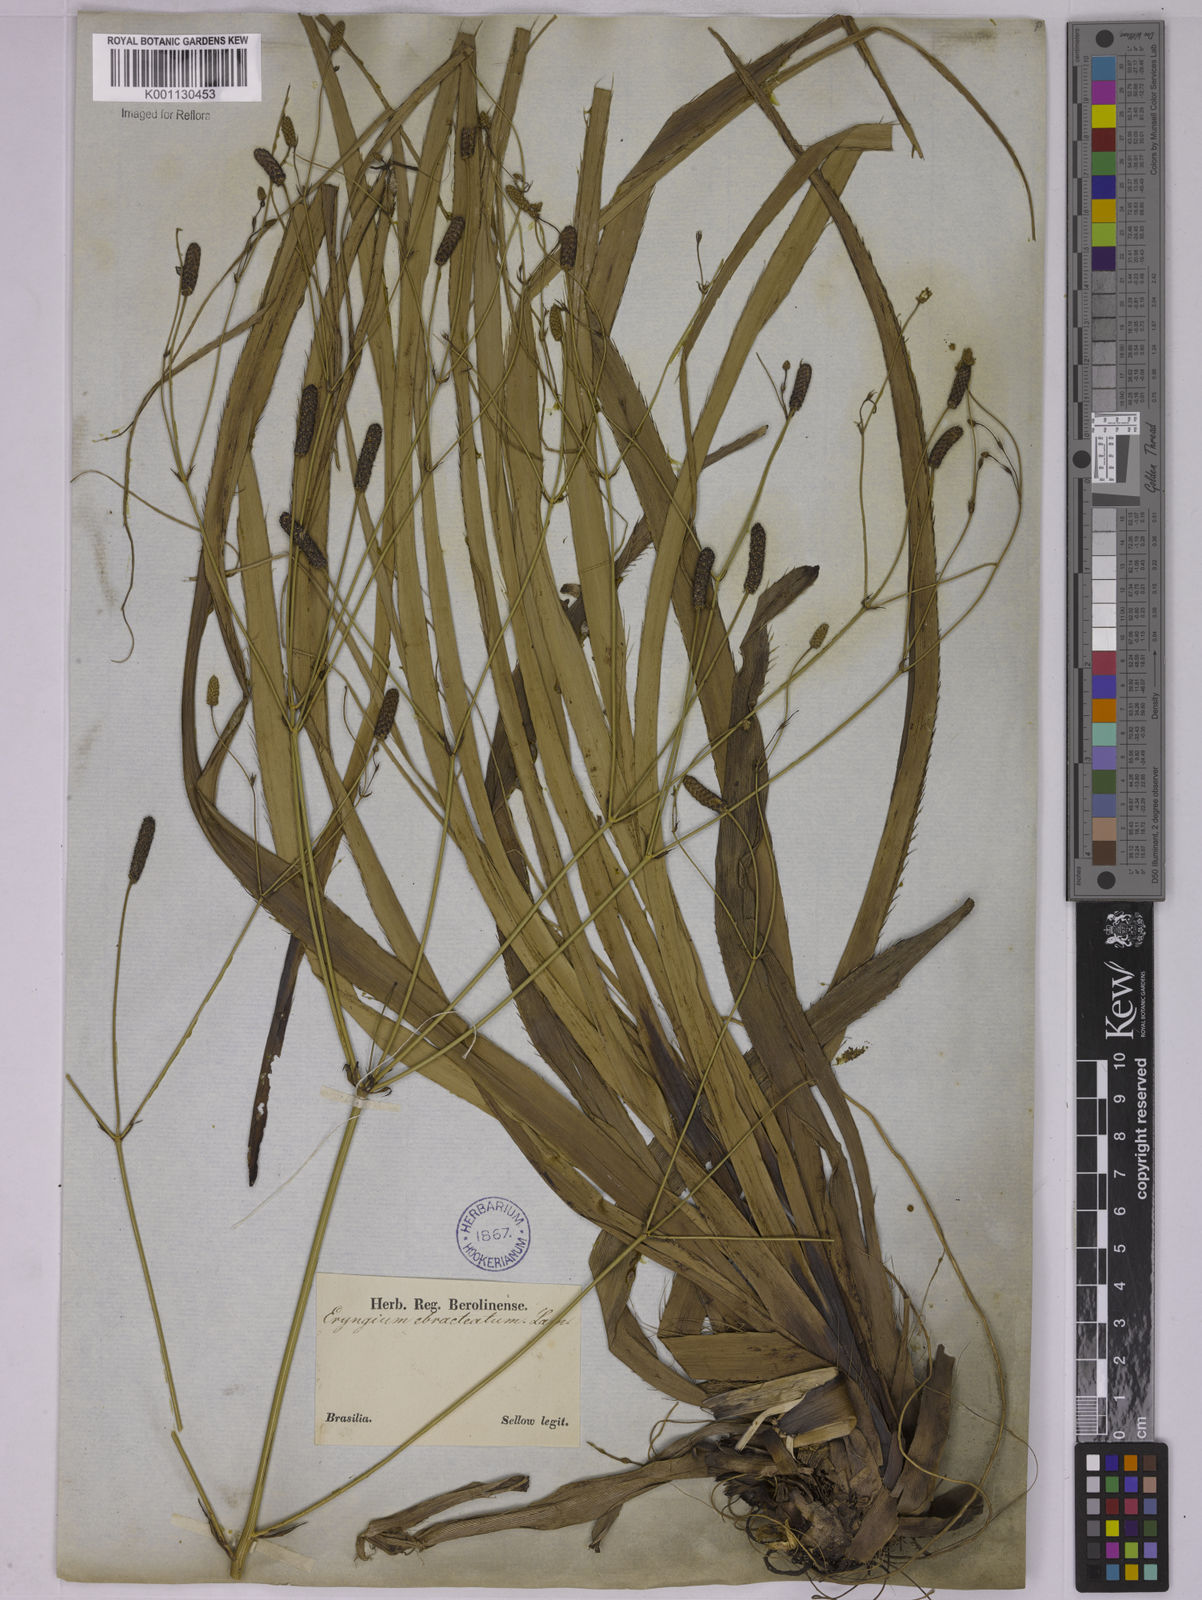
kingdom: Plantae
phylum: Tracheophyta
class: Magnoliopsida
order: Apiales
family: Apiaceae
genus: Eryngium
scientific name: Eryngium ebracteatum
